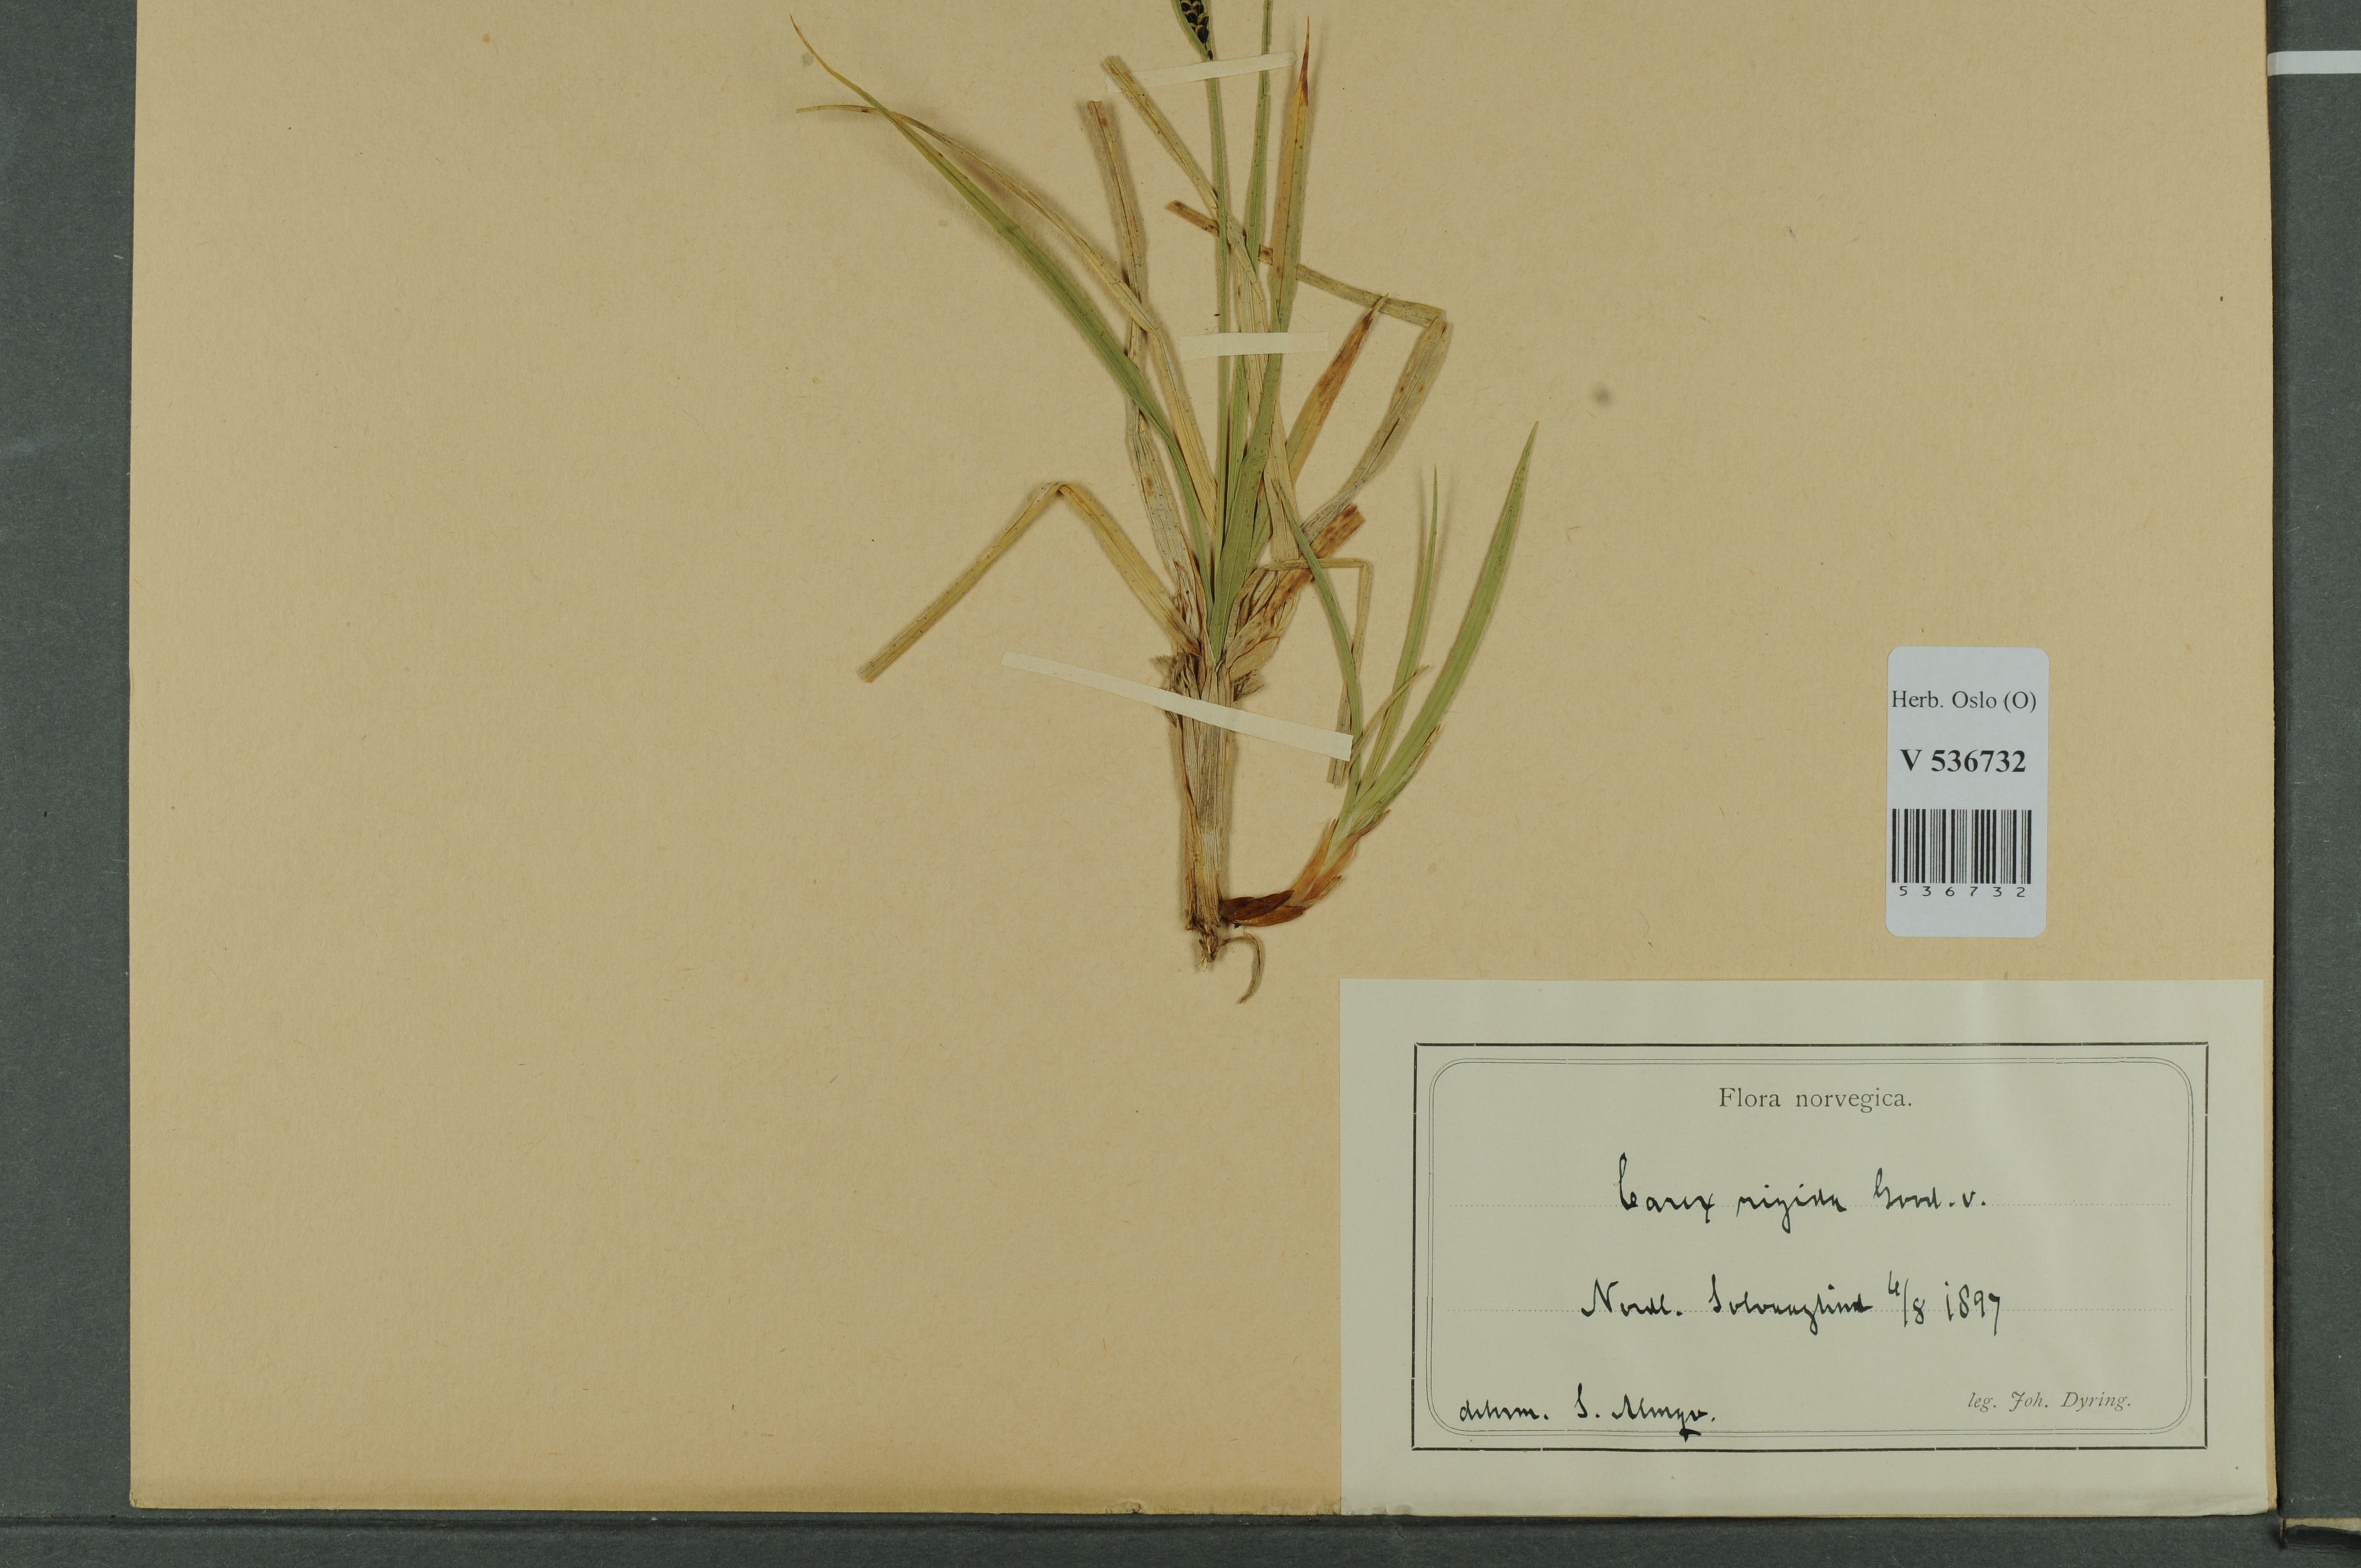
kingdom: Plantae
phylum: Tracheophyta
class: Liliopsida
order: Poales
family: Cyperaceae
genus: Carex
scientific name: Carex dacica
